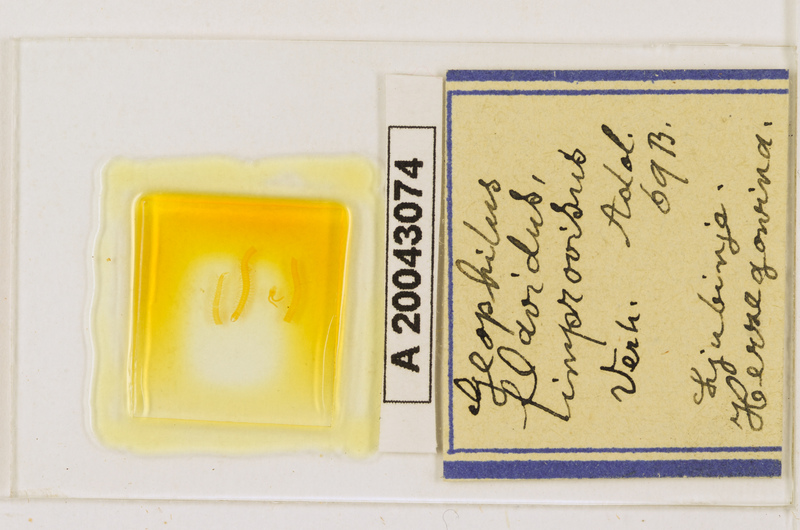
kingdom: Animalia
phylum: Arthropoda
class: Chilopoda
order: Geophilomorpha
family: Geophilidae
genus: Clinopodes
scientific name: Clinopodes flavidus
